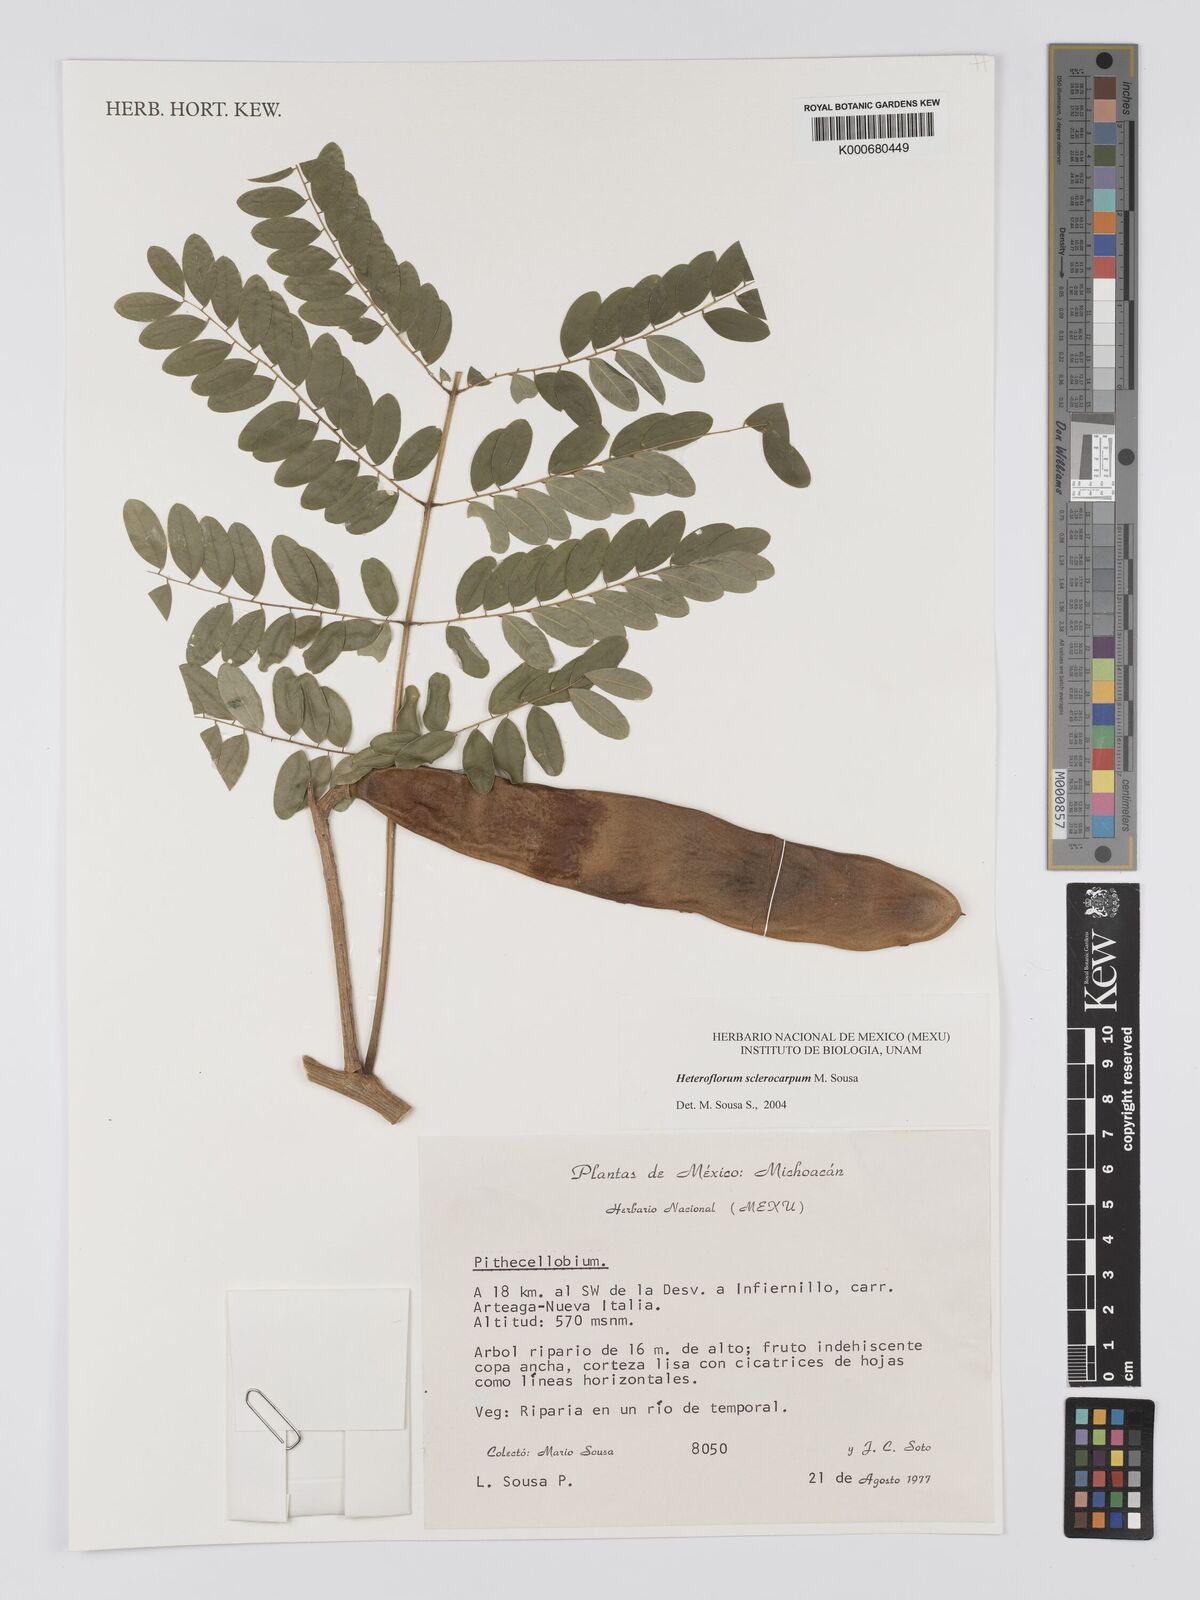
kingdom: Plantae
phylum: Tracheophyta
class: Magnoliopsida
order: Fabales
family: Fabaceae
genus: Heteroflorum
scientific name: Heteroflorum sclerocarpum
